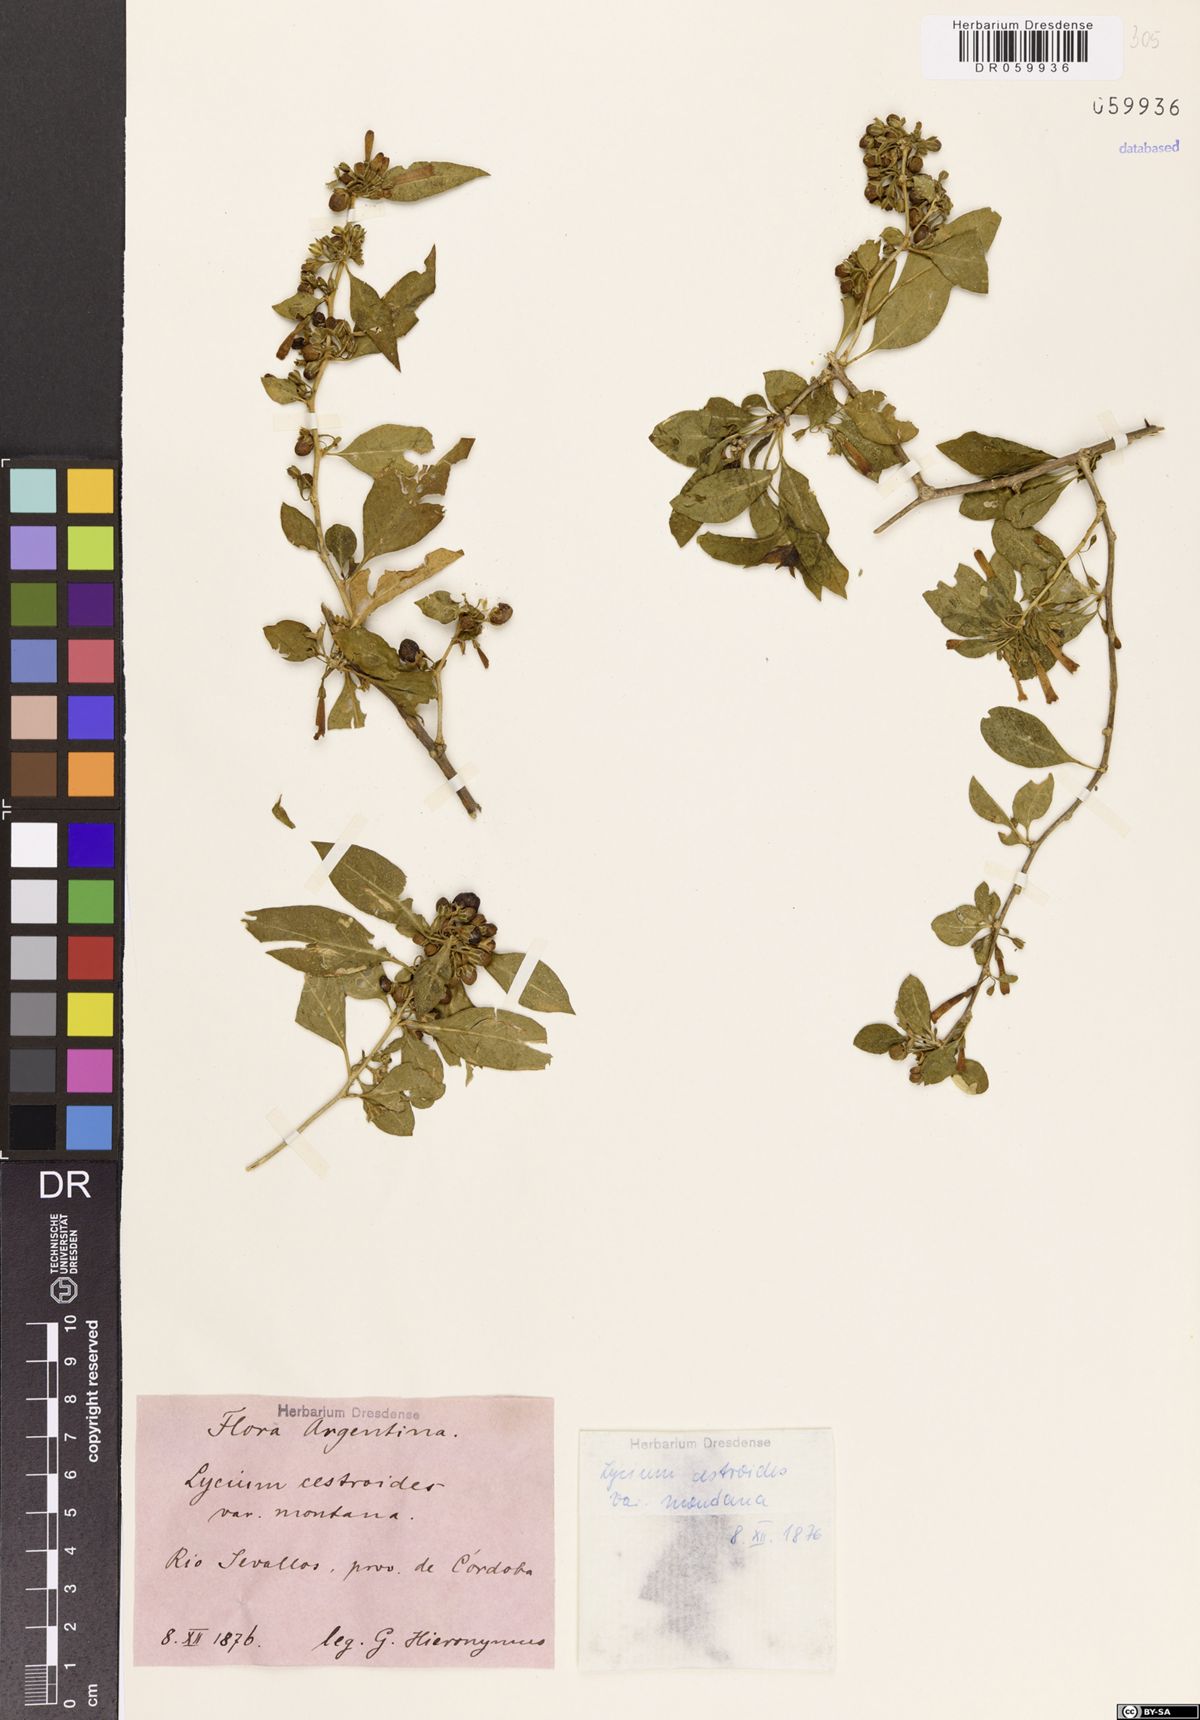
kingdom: Plantae
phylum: Tracheophyta
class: Magnoliopsida
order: Solanales
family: Solanaceae
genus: Lycium
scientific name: Lycium cestroides
